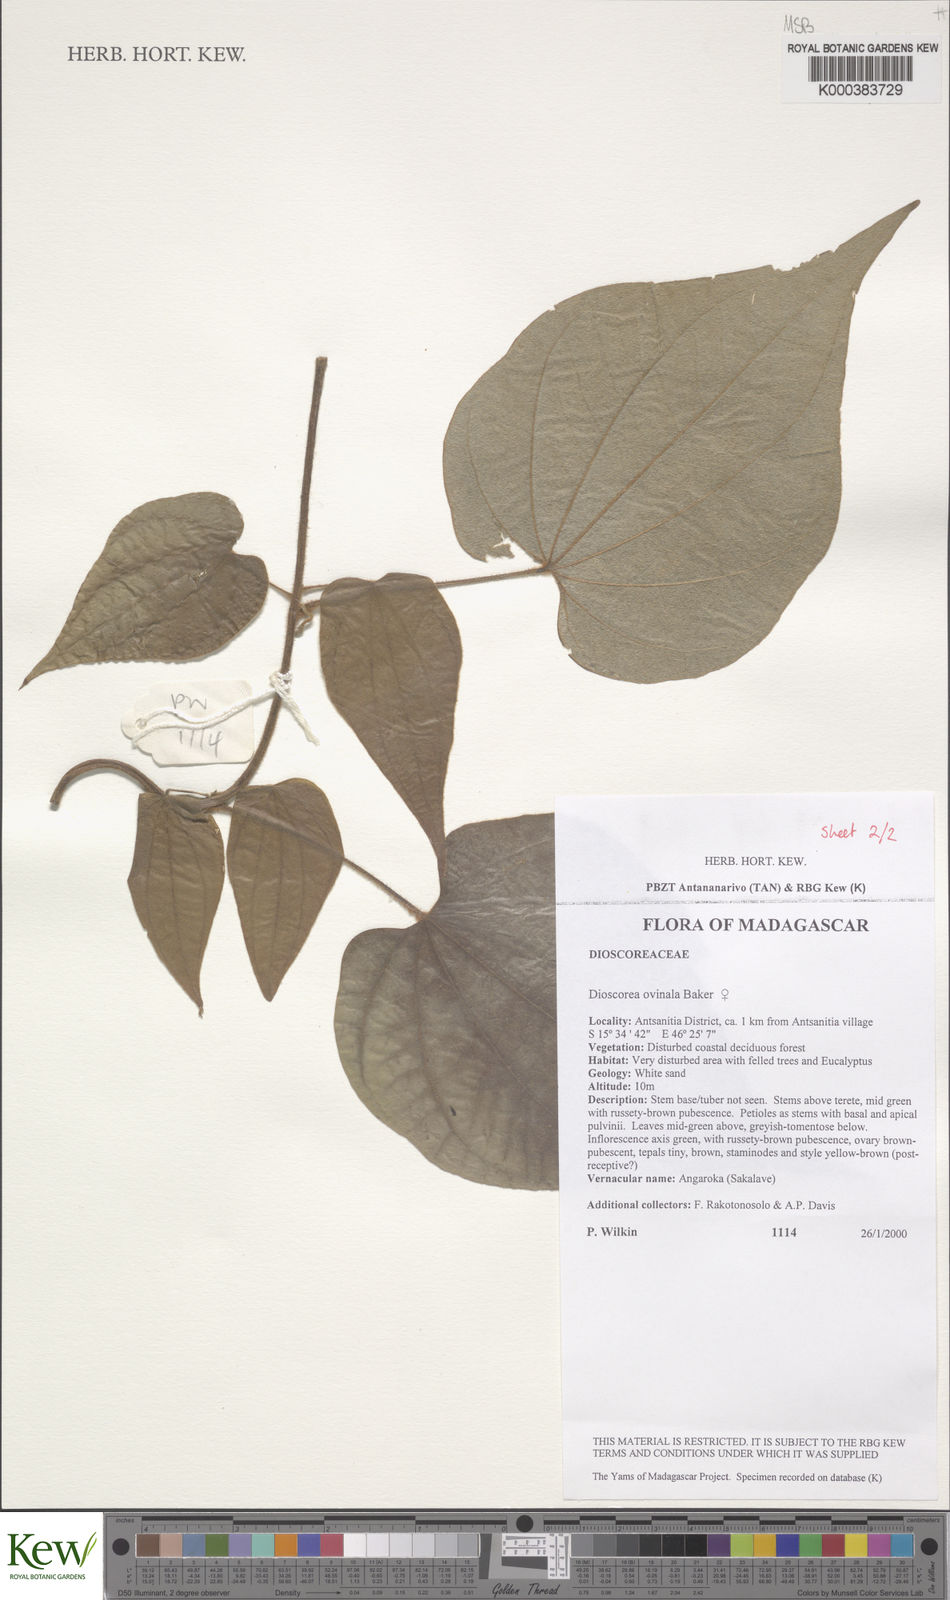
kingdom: Plantae
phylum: Tracheophyta
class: Liliopsida
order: Dioscoreales
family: Dioscoreaceae
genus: Dioscorea
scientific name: Dioscorea ovinala
